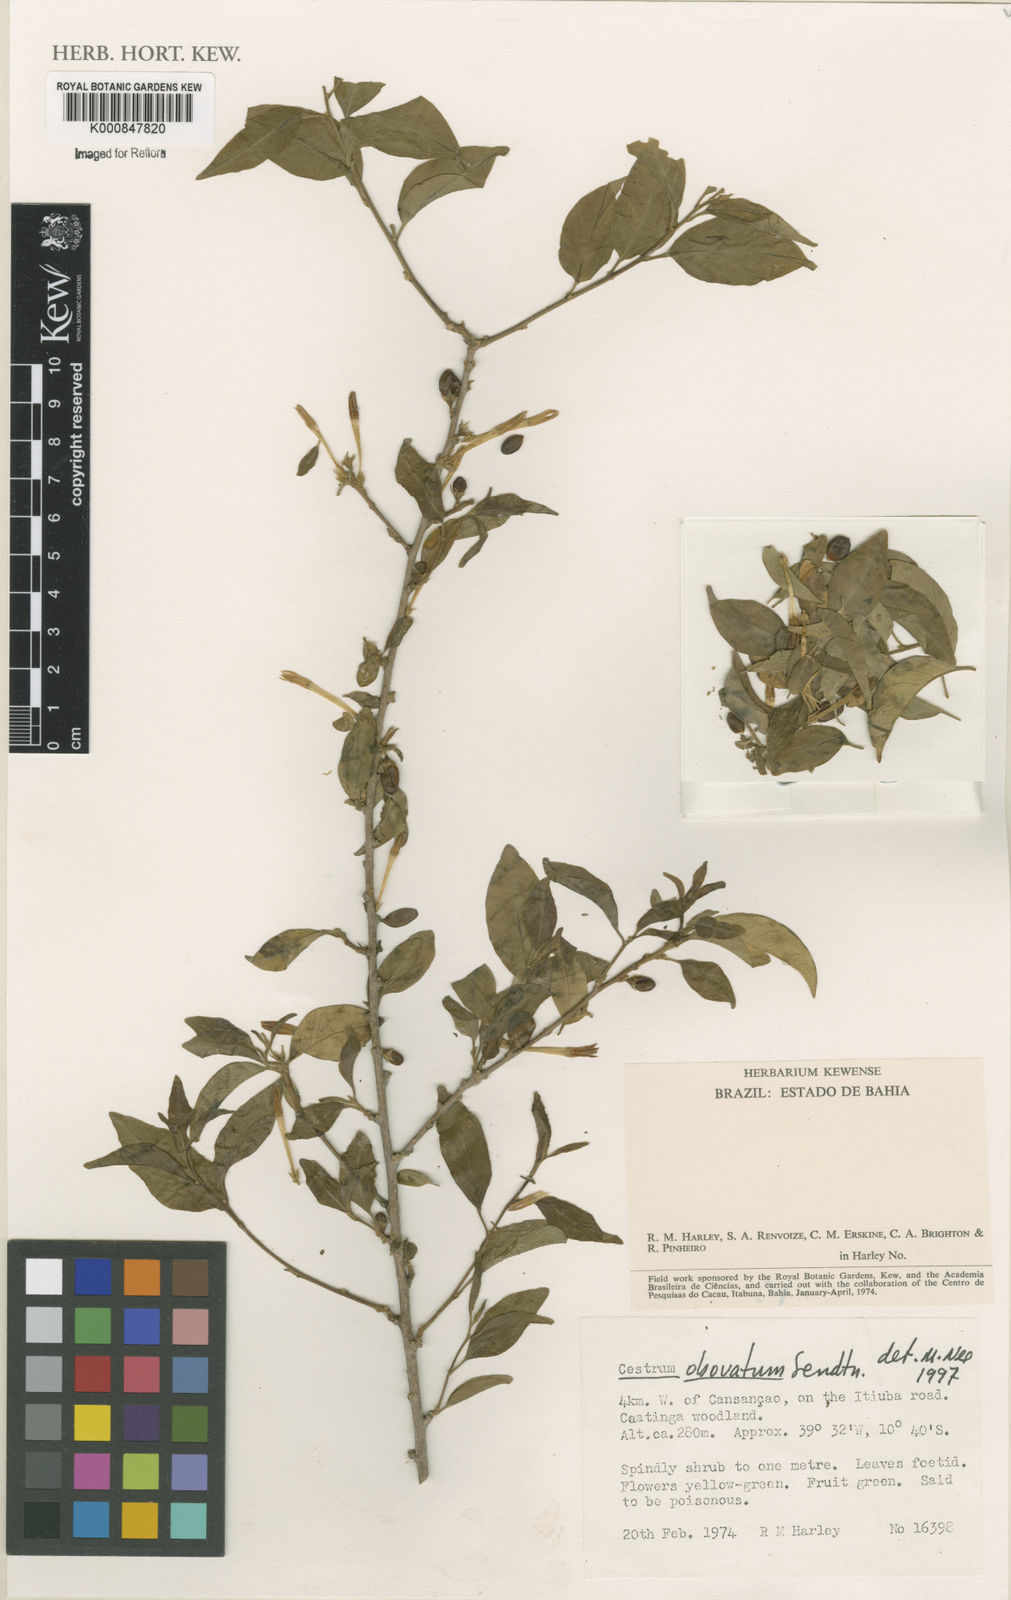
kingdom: Plantae
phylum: Tracheophyta
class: Magnoliopsida
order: Solanales
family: Solanaceae
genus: Cestrum
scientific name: Cestrum obovatum
